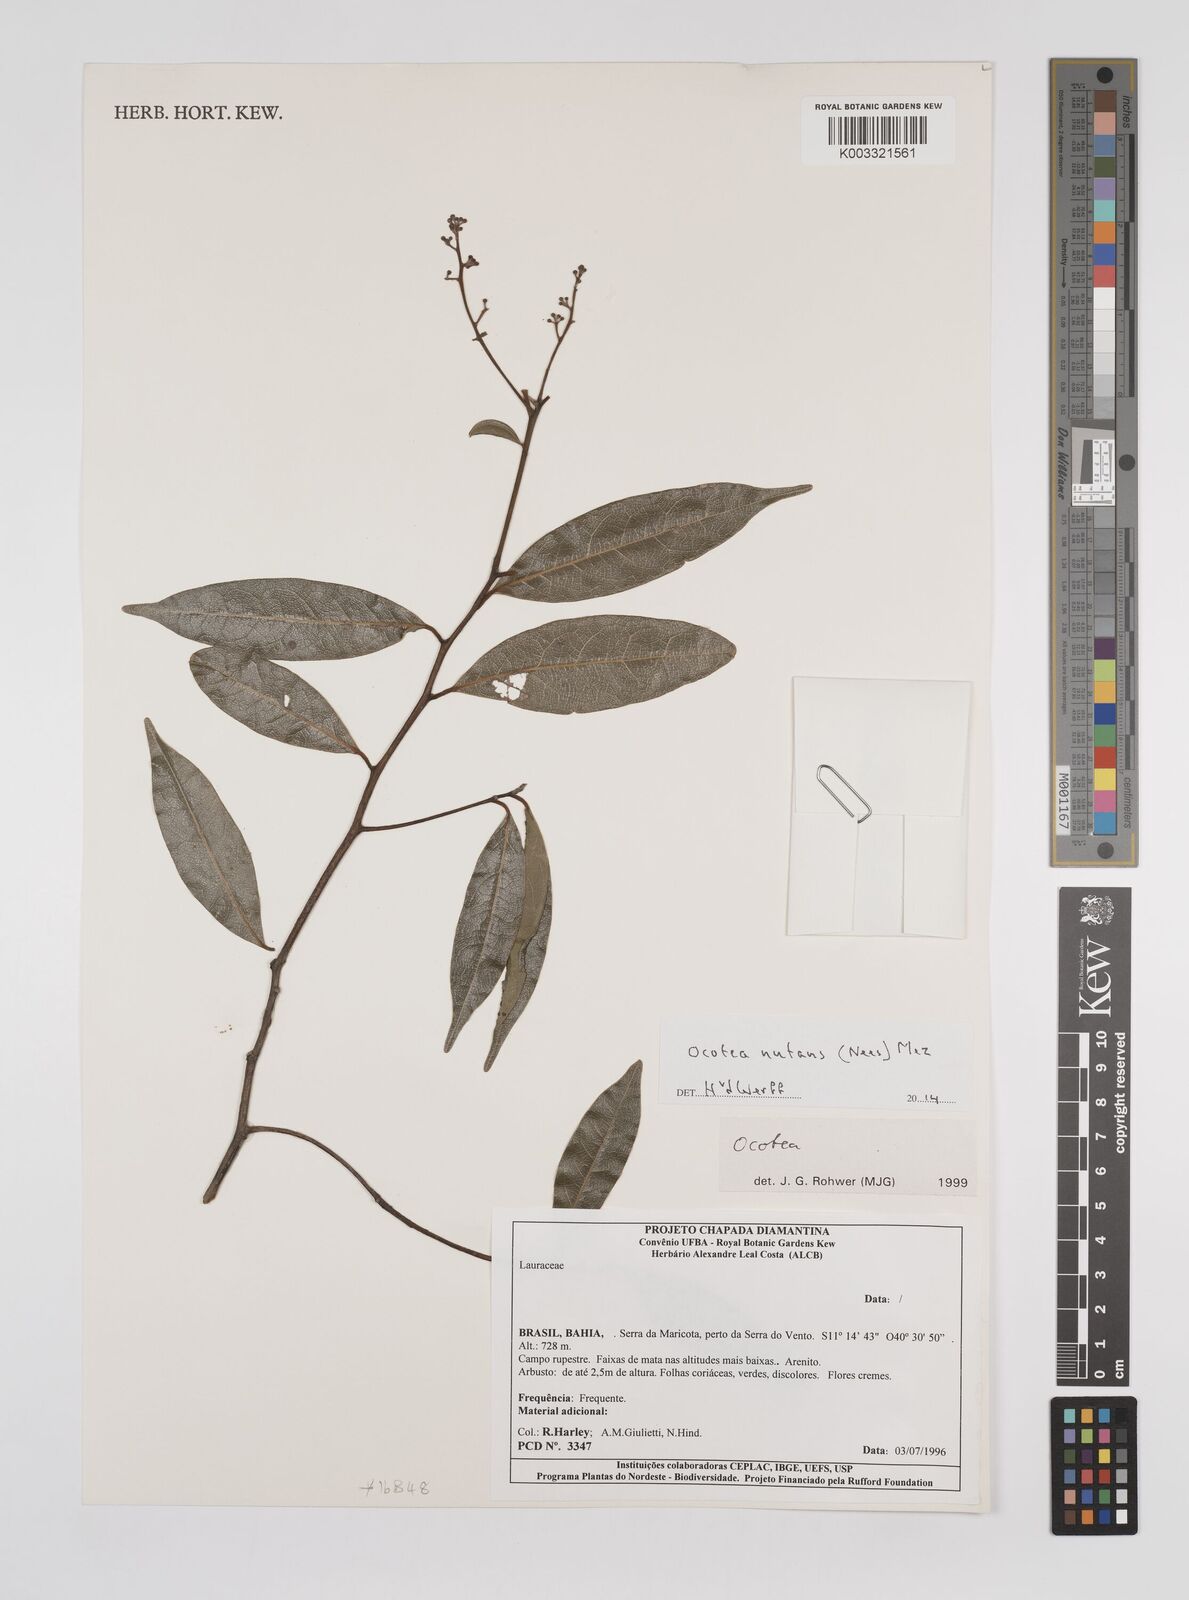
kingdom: Plantae
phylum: Tracheophyta
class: Magnoliopsida
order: Laurales
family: Lauraceae
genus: Mespilodaphne
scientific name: Mespilodaphne nutans
